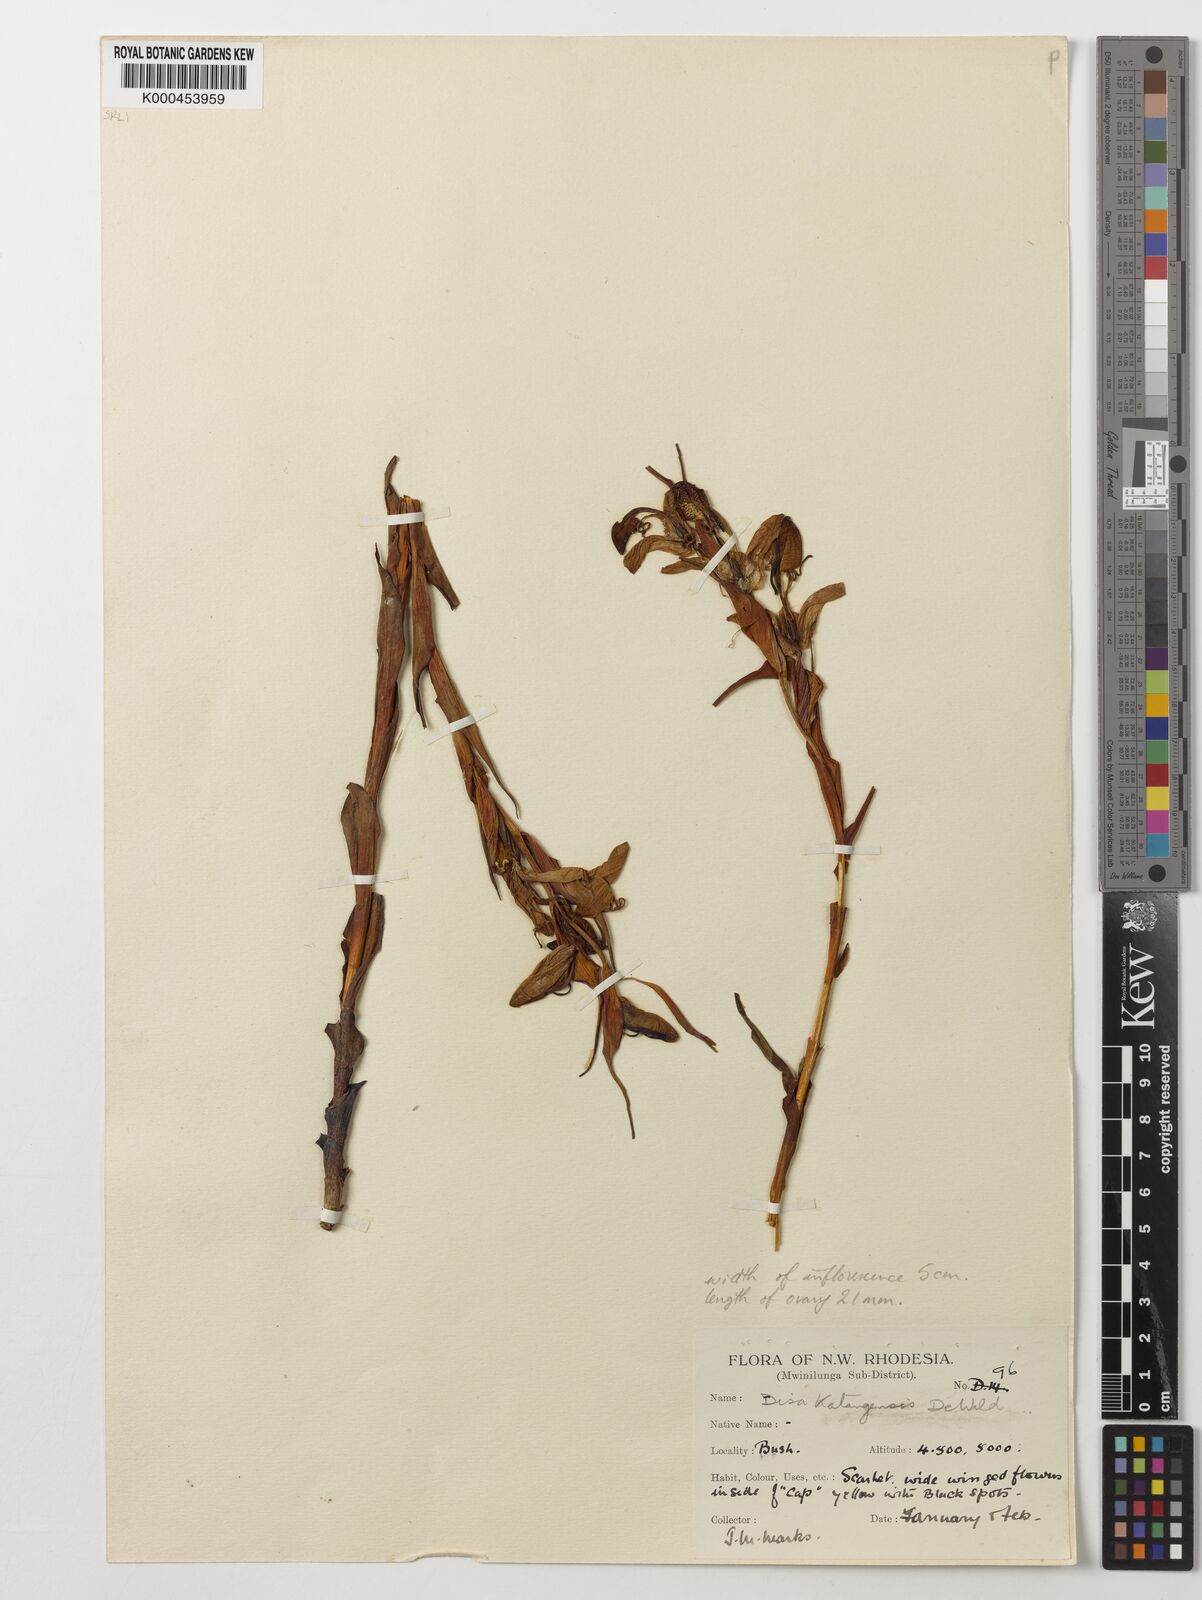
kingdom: Plantae
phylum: Tracheophyta
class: Liliopsida
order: Asparagales
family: Orchidaceae
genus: Disa
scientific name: Disa katangensis
